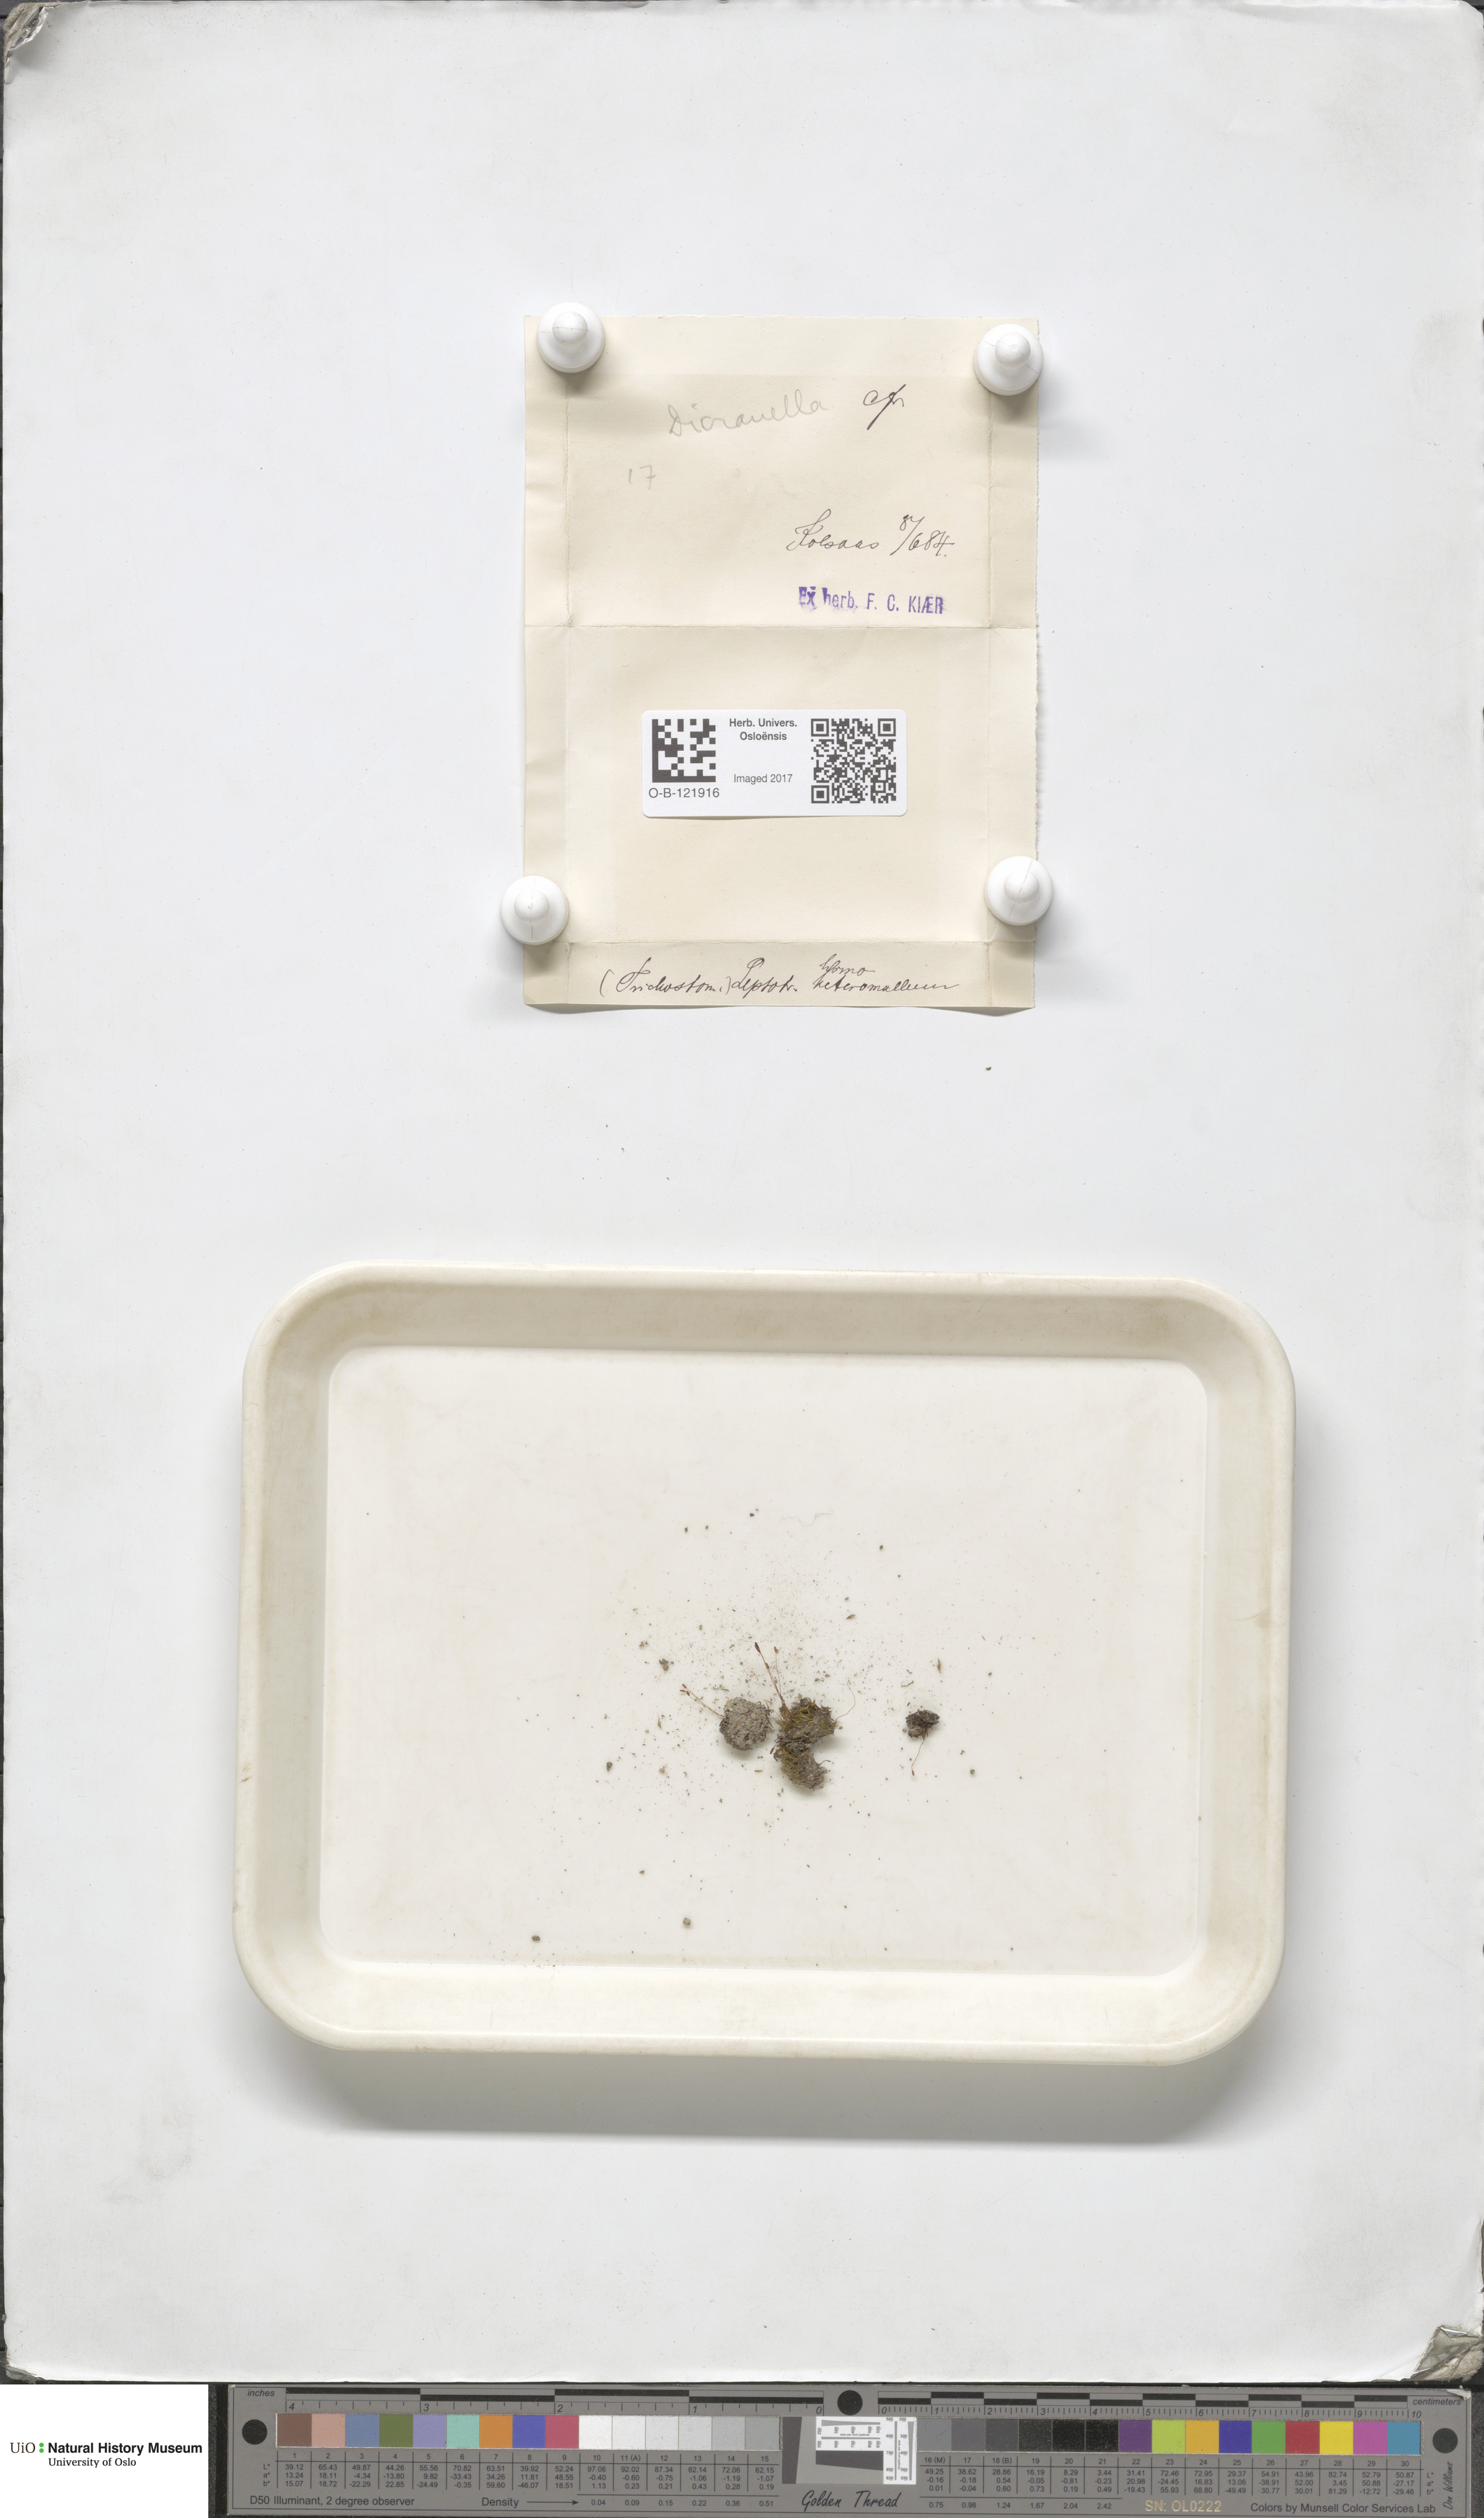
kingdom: Plantae
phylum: Bryophyta
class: Bryopsida
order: Dicranales
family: Dicranellaceae
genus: Dicranella
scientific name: Dicranella heteromalla
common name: Silky forklet moss
